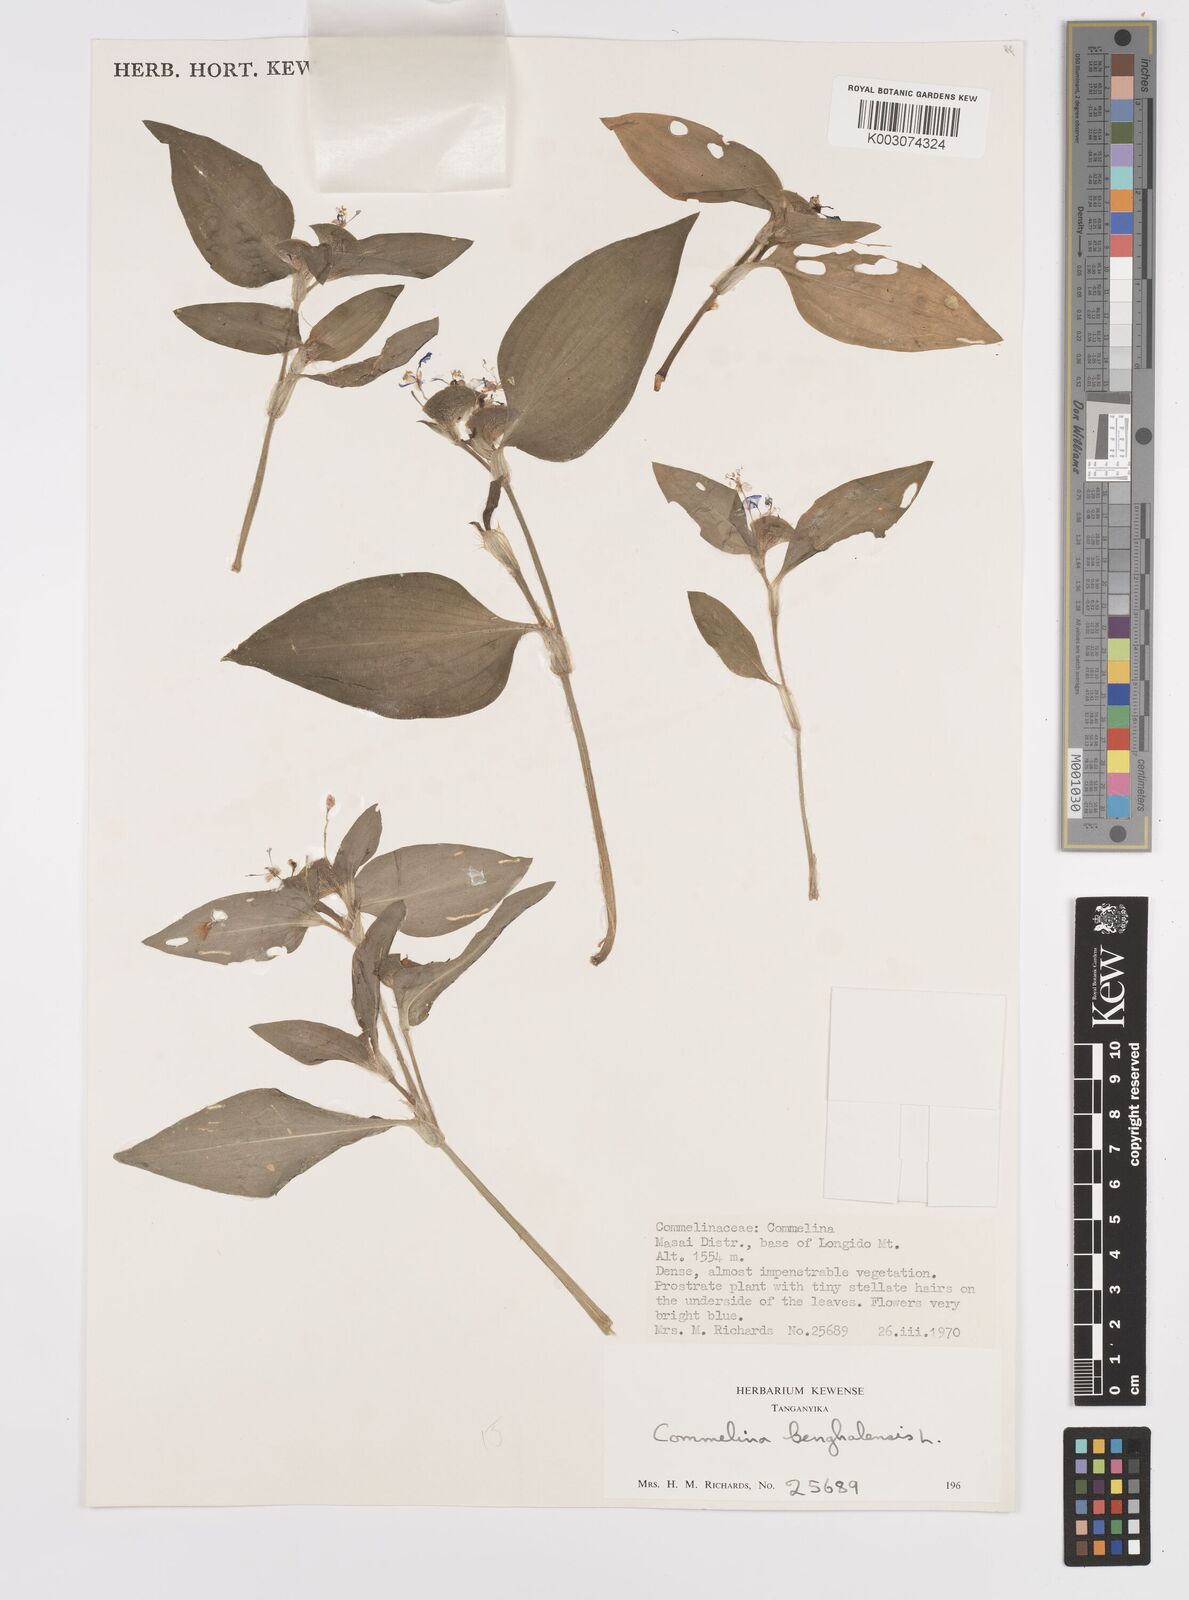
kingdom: Plantae
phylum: Tracheophyta
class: Liliopsida
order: Commelinales
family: Commelinaceae
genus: Commelina
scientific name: Commelina benghalensis
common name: Jio
